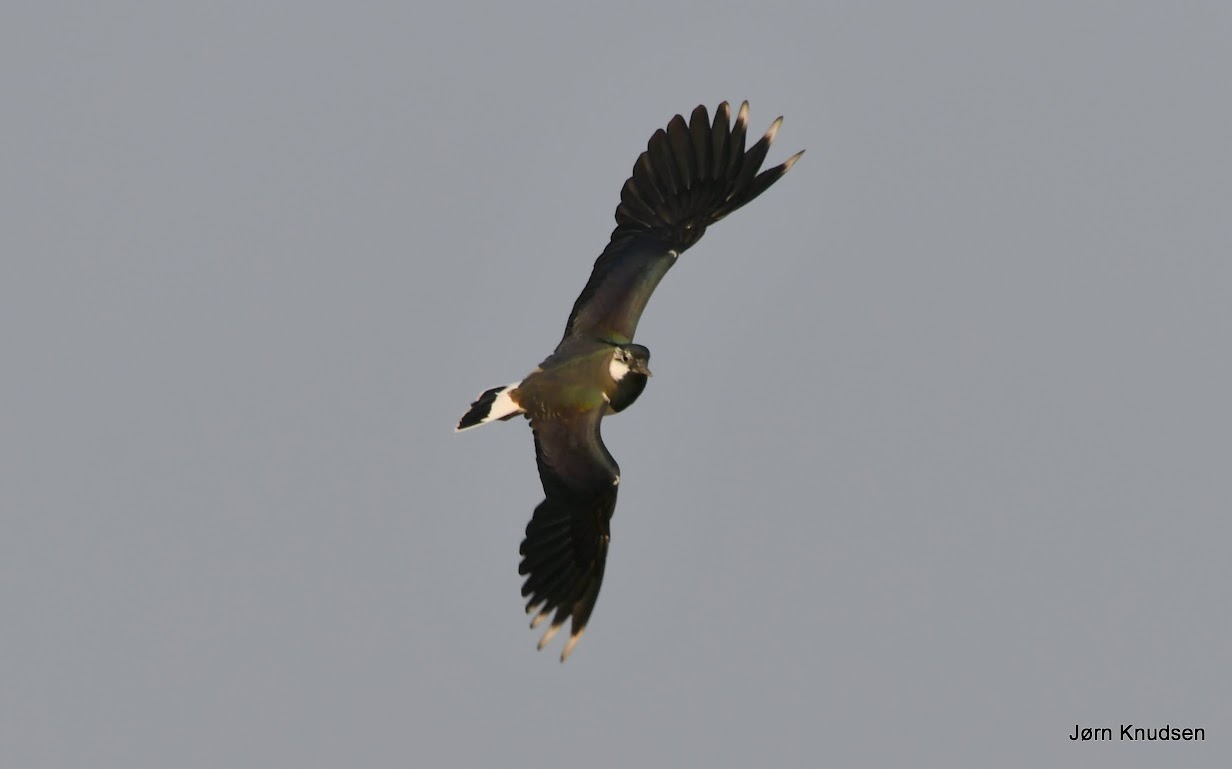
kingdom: Animalia
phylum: Chordata
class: Aves
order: Charadriiformes
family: Charadriidae
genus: Vanellus
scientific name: Vanellus vanellus
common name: Vibe
